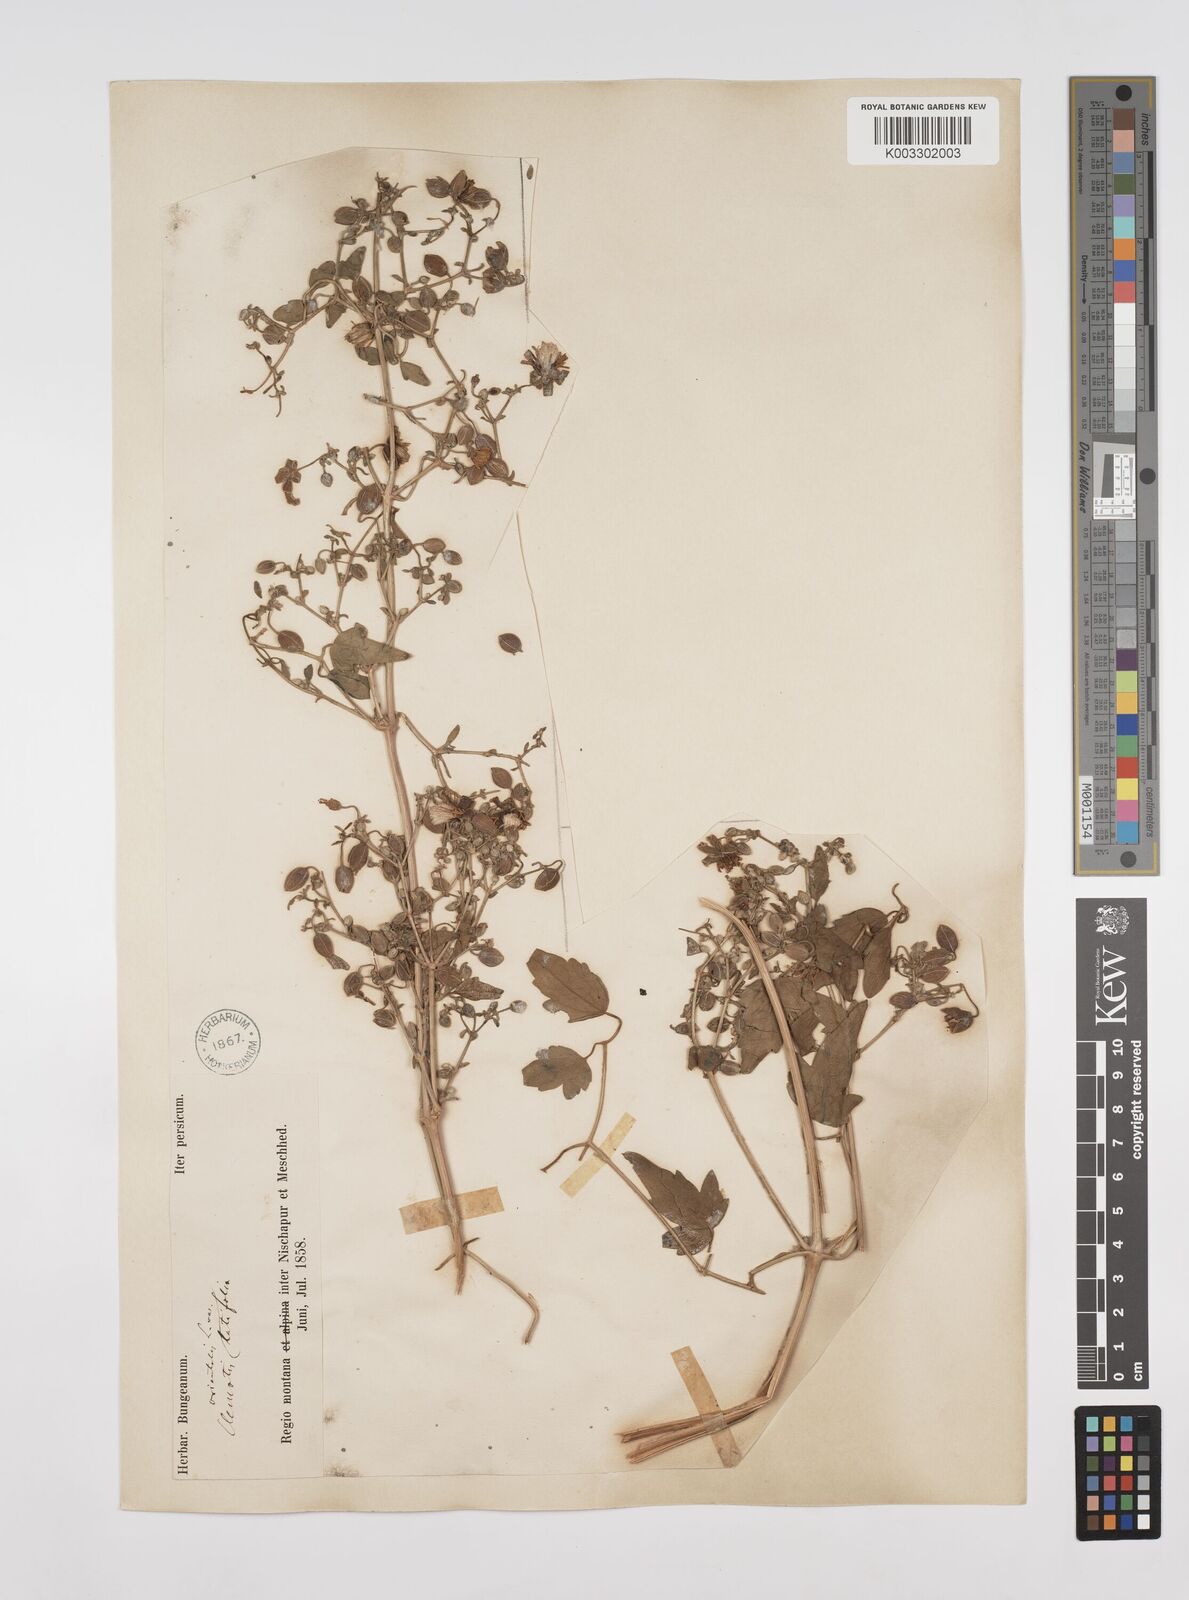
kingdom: Plantae
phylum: Tracheophyta
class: Magnoliopsida
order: Ranunculales
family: Ranunculaceae
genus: Clematis
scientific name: Clematis orientalis
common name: Oriental virgin's-bower
